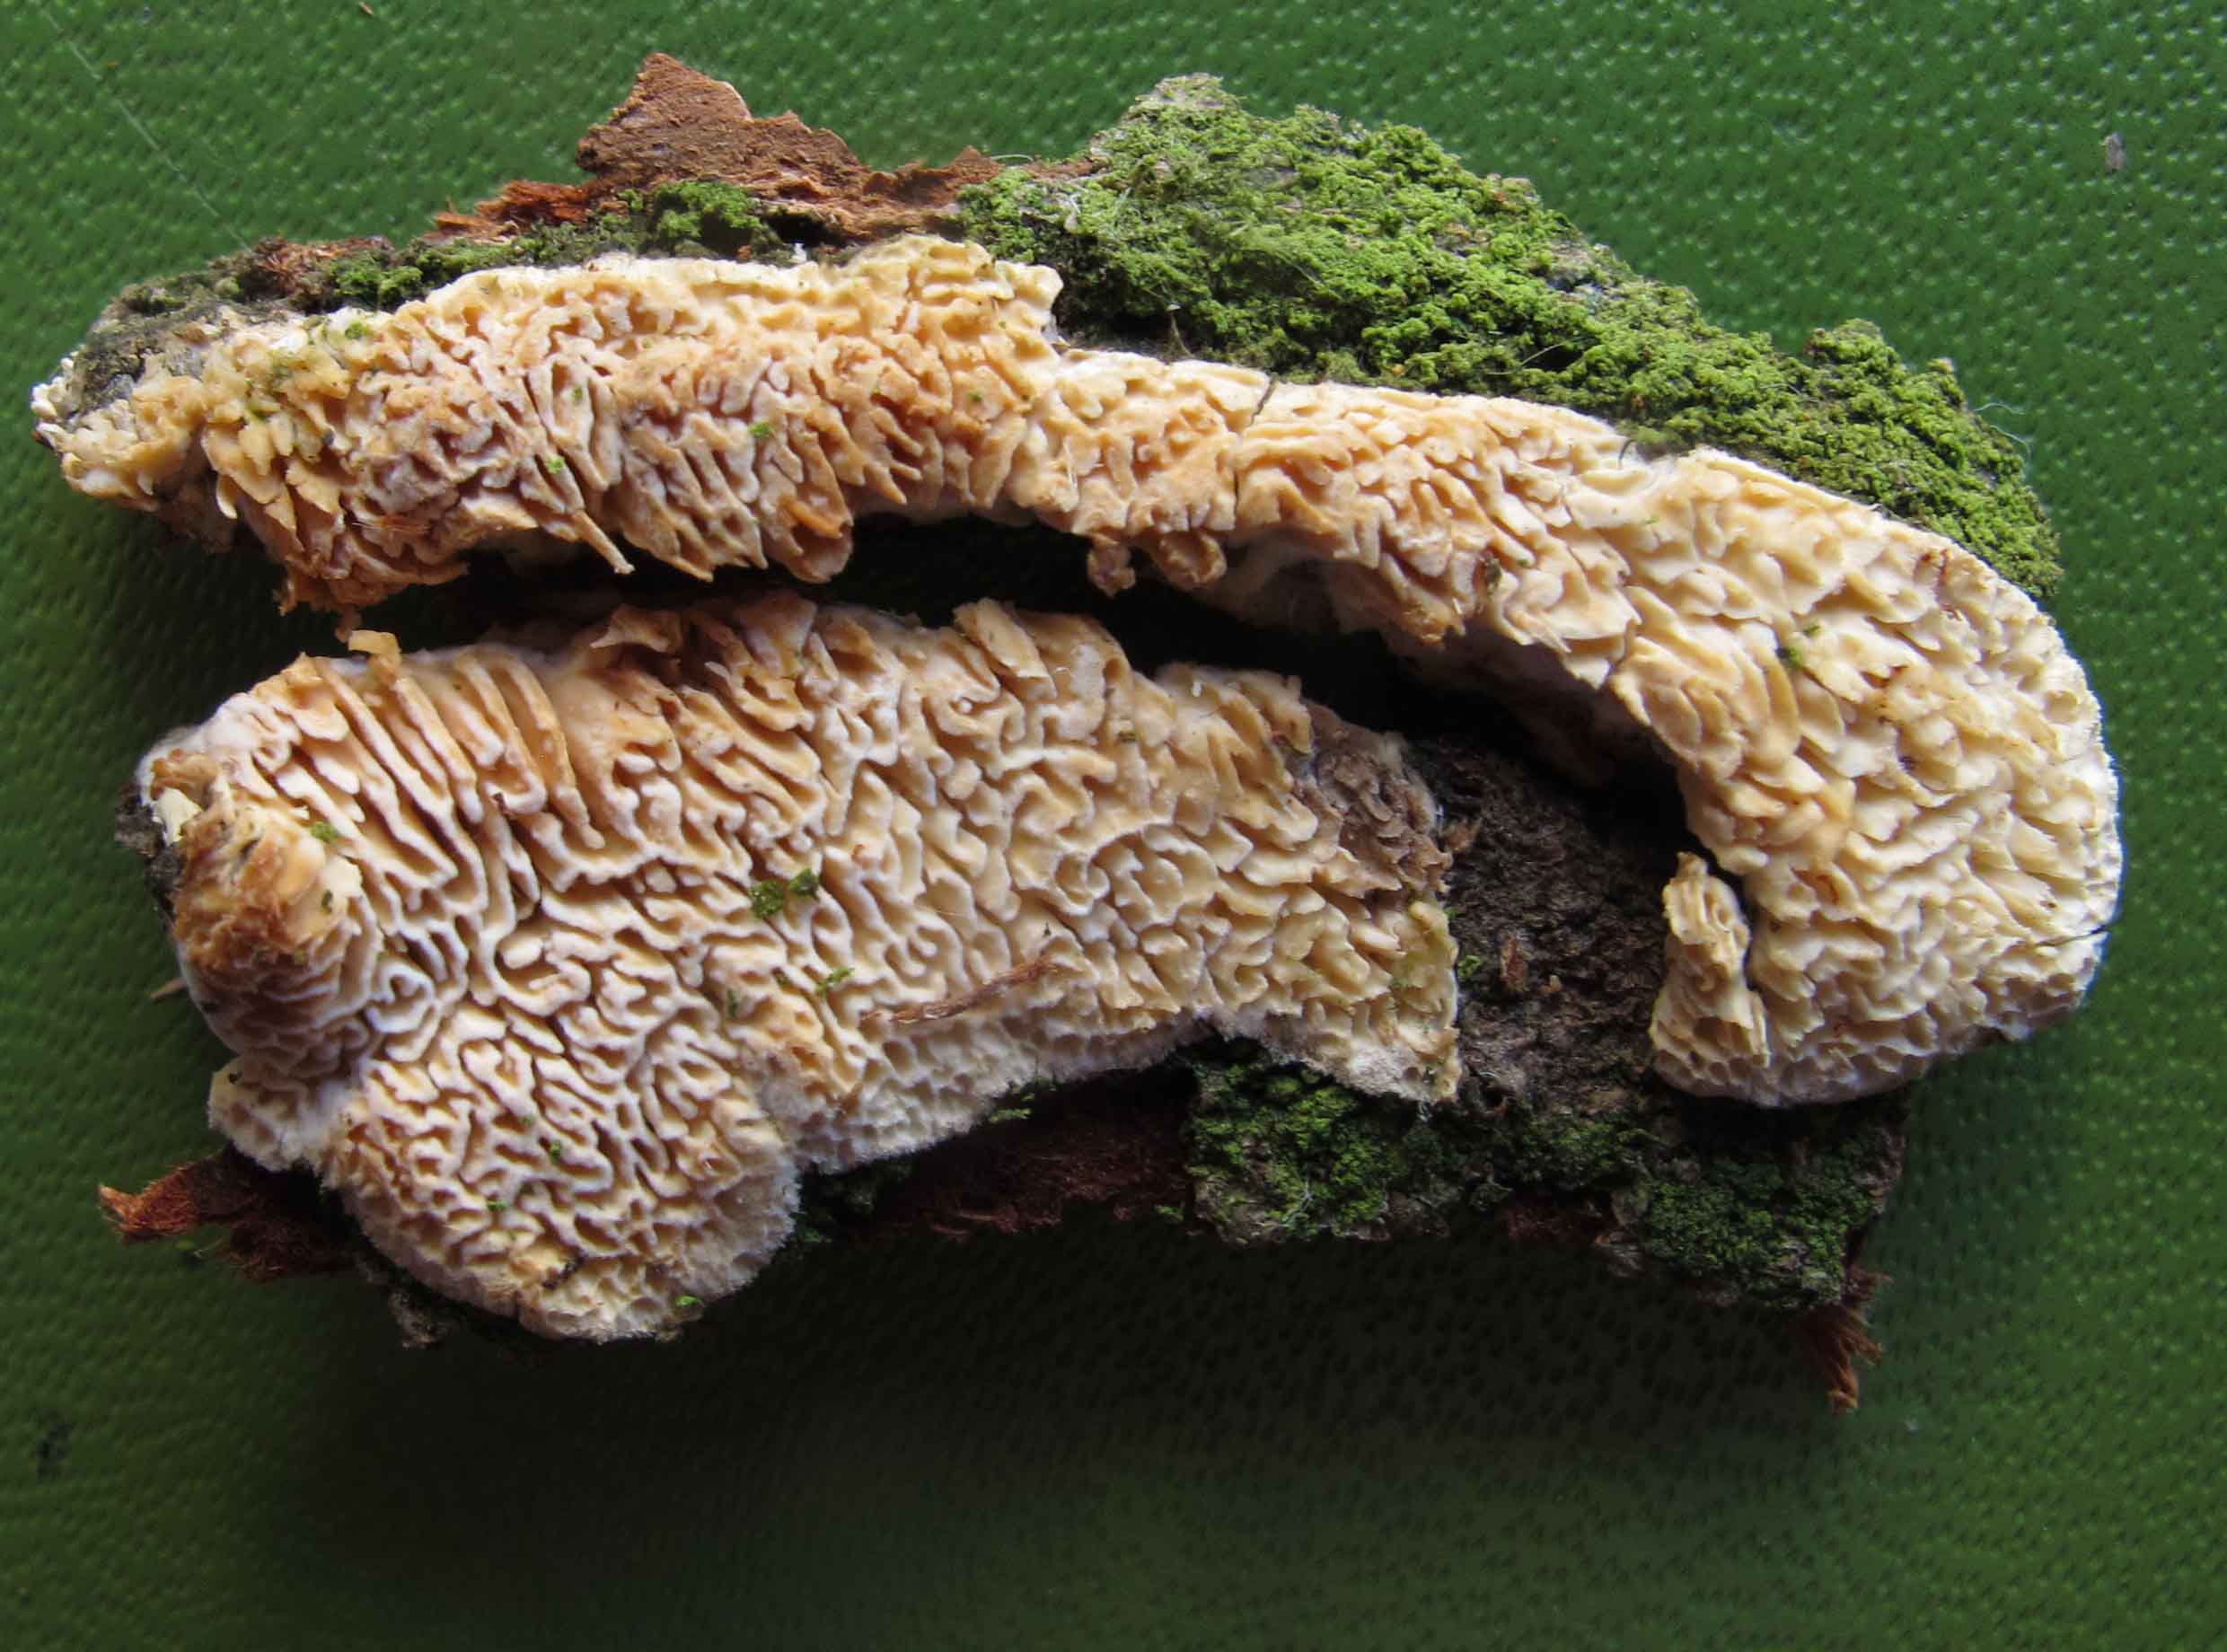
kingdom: Fungi
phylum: Basidiomycota
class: Agaricomycetes
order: Polyporales
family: Fomitopsidaceae
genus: Brunneoporus
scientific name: Brunneoporus kuzyanus
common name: brunlig sejporesvamp
